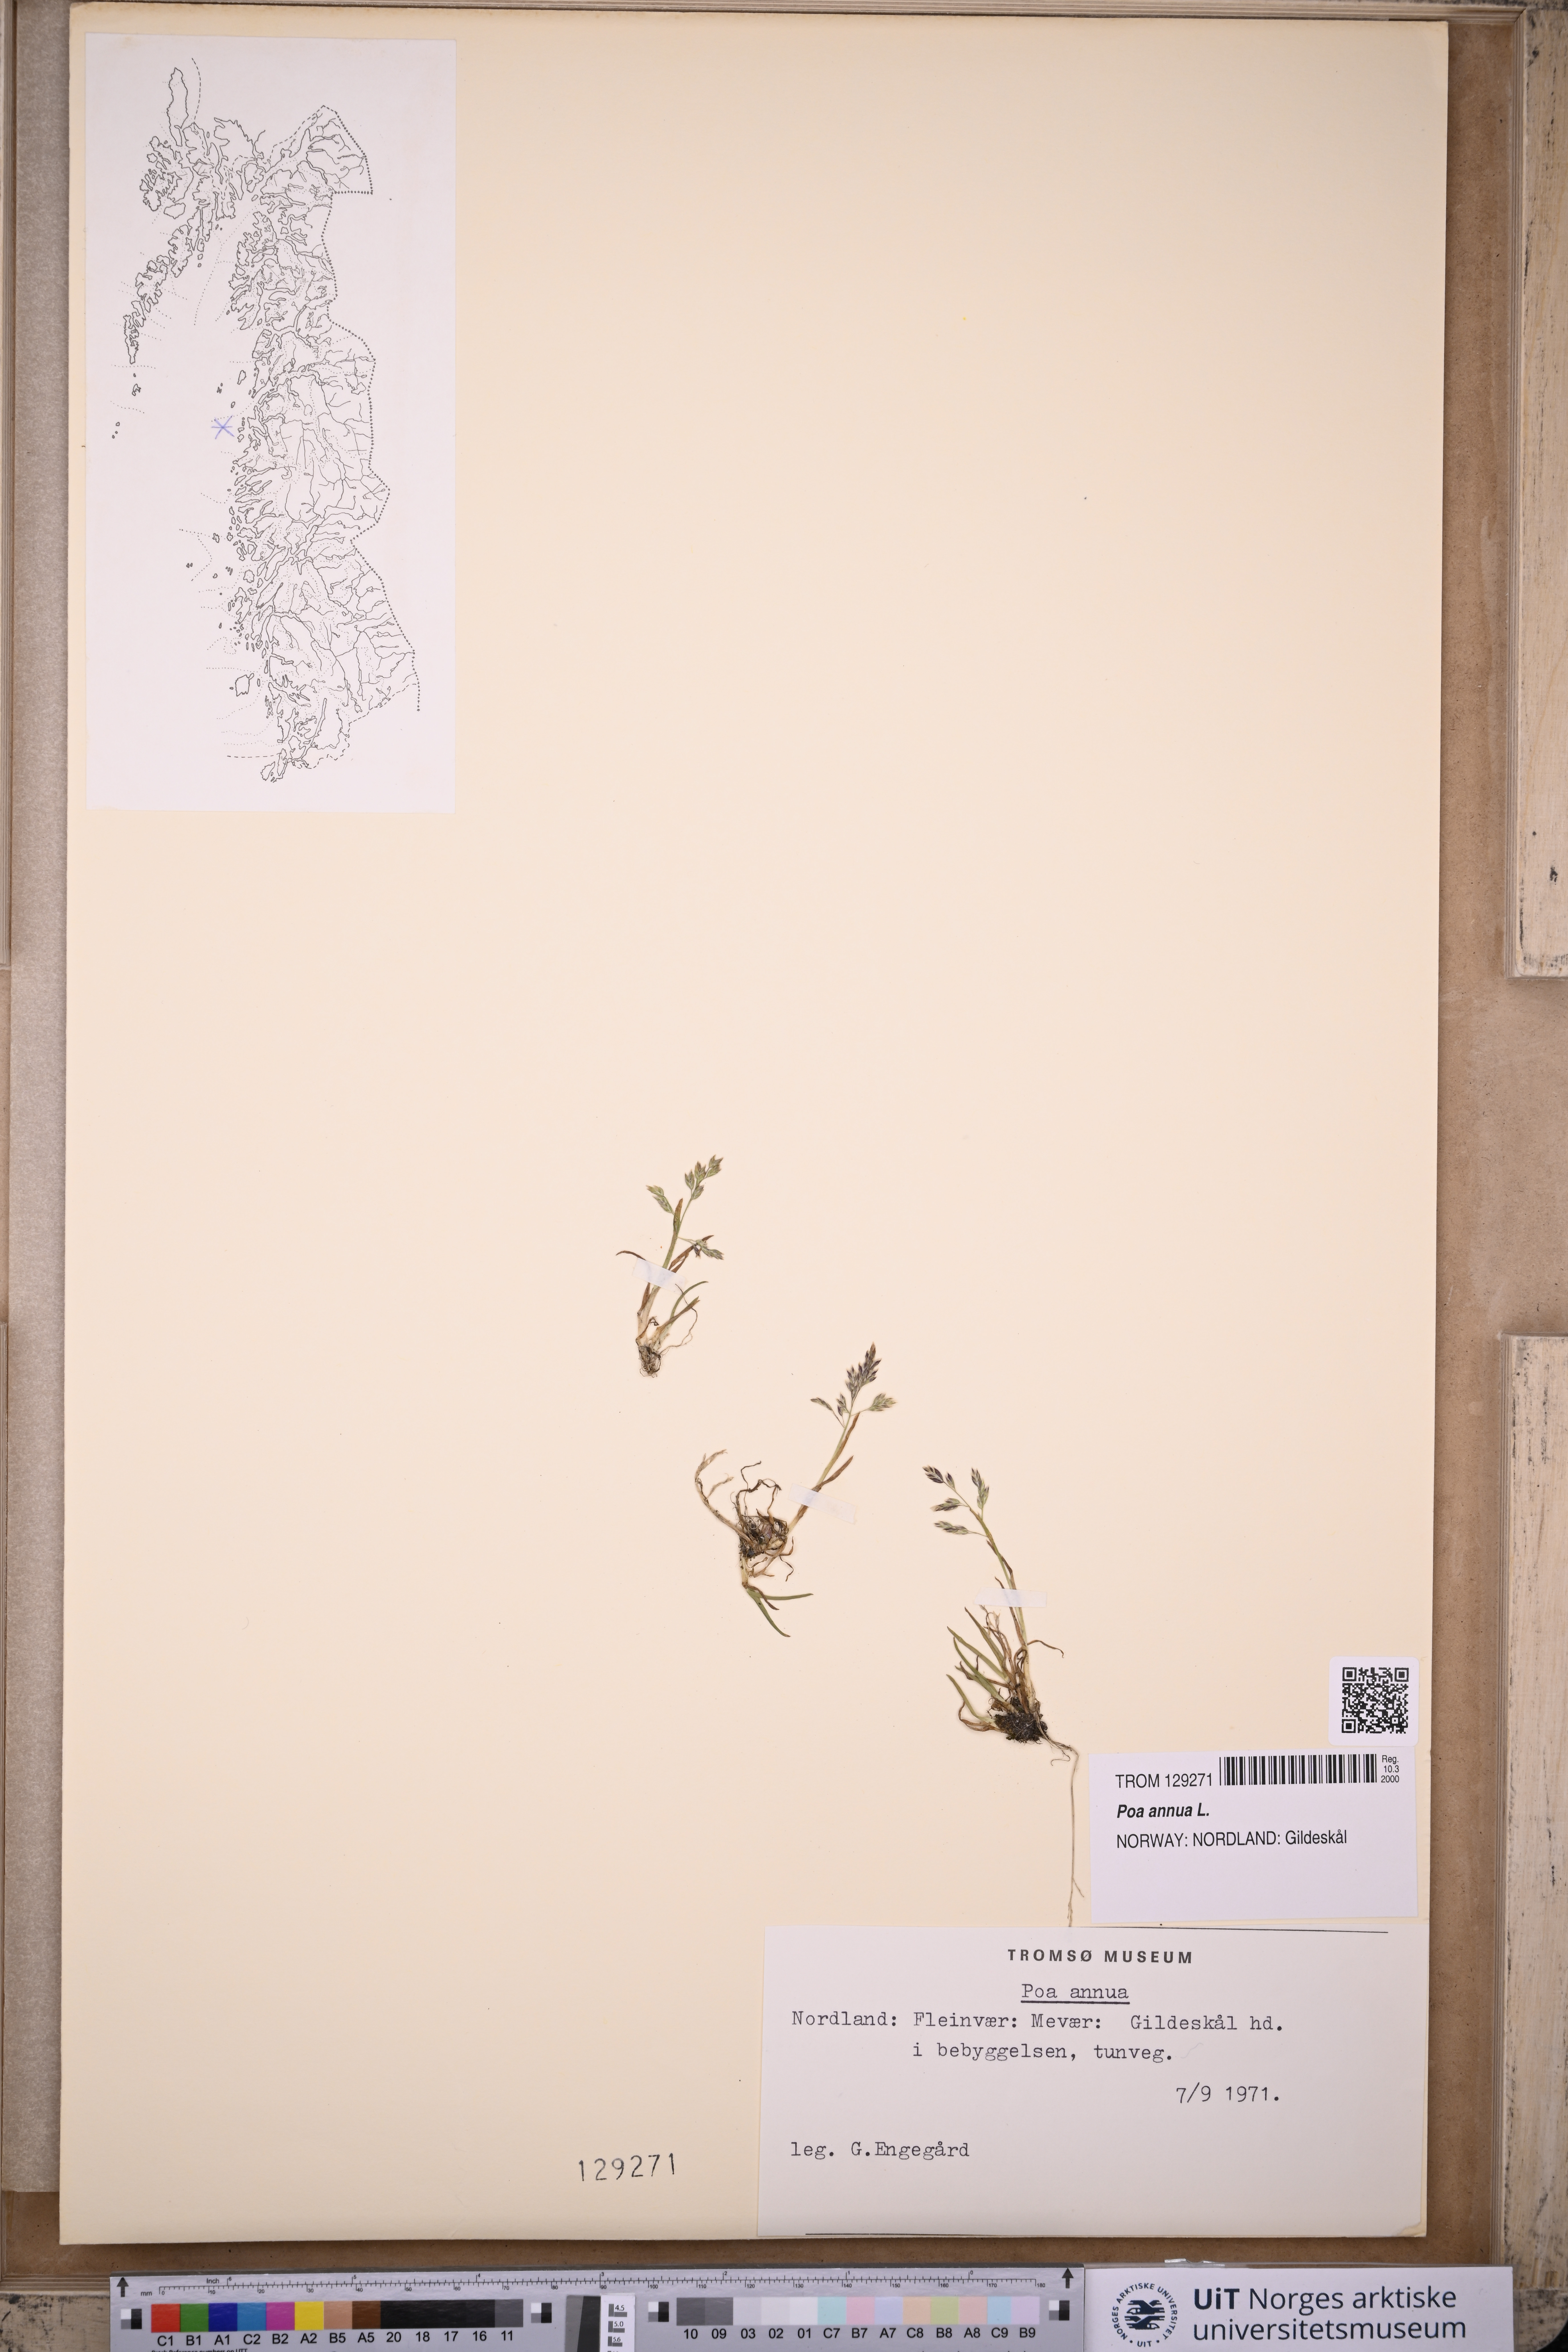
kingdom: Plantae
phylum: Tracheophyta
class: Liliopsida
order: Poales
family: Poaceae
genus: Poa
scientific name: Poa annua
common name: Annual bluegrass
